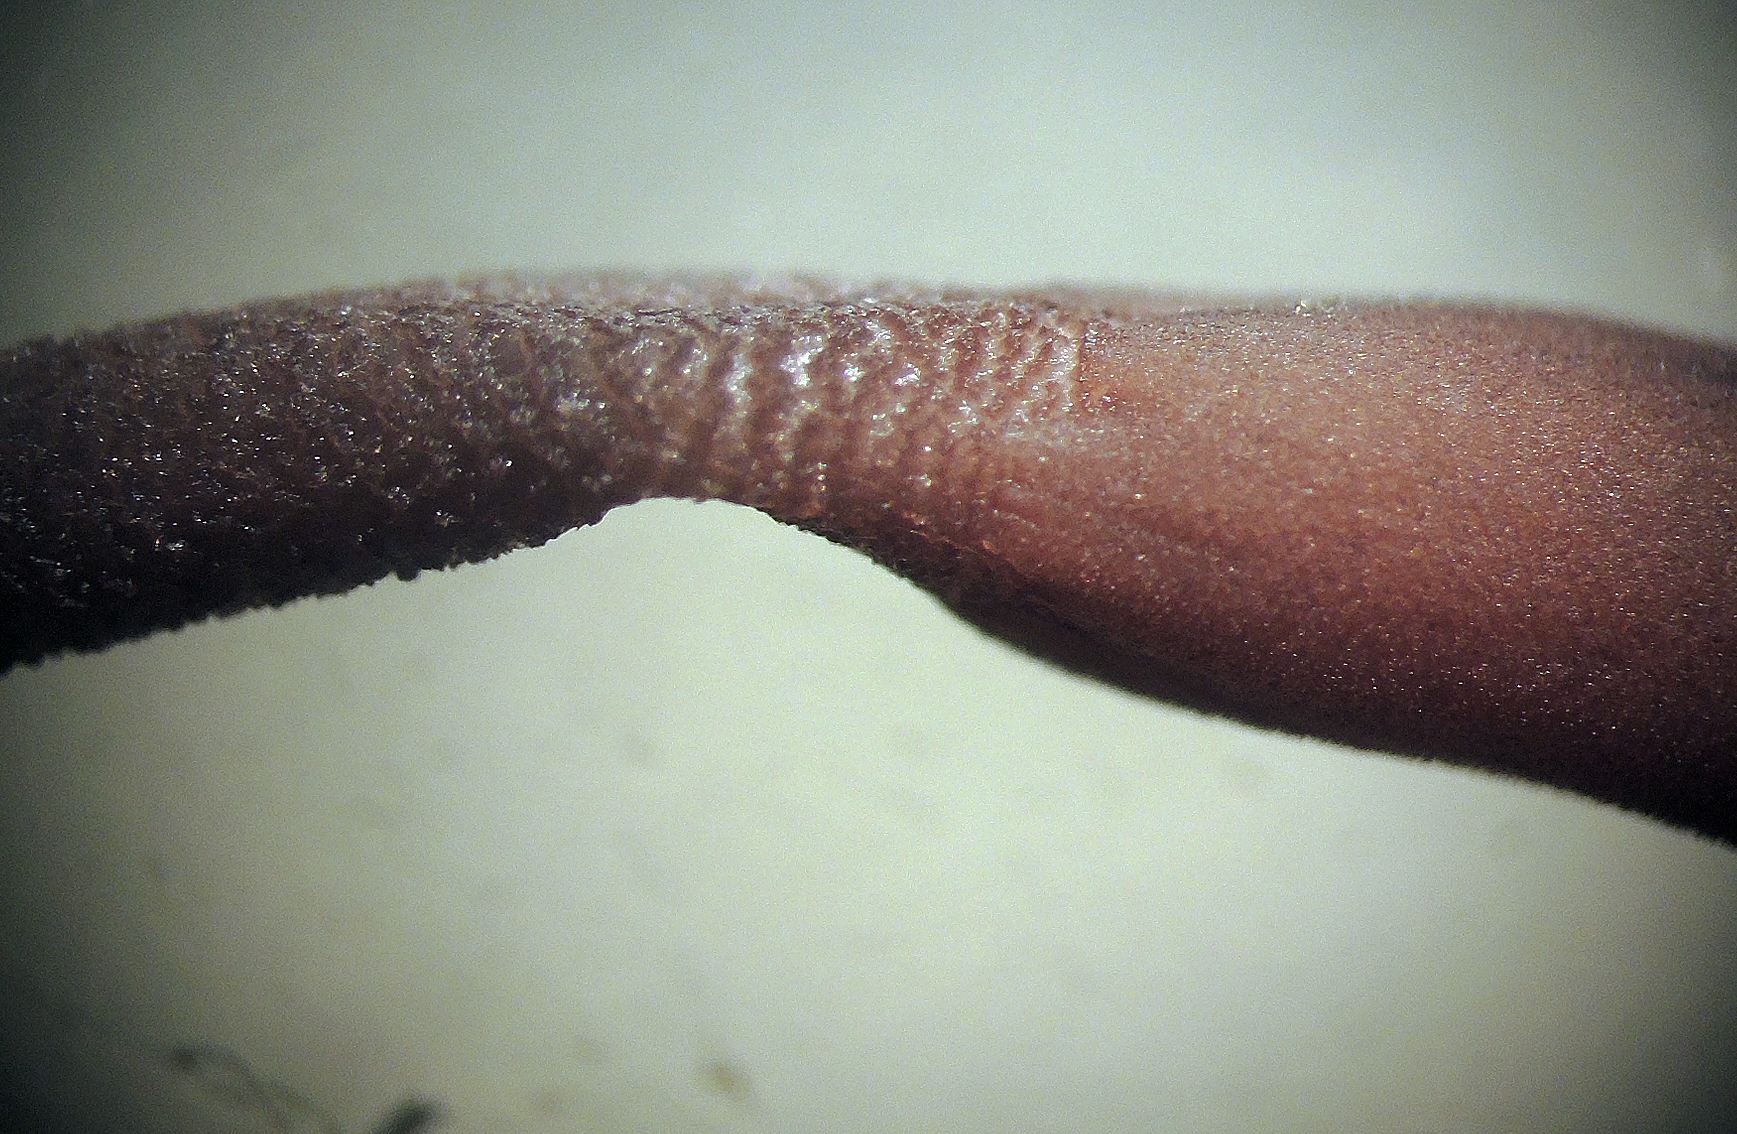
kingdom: Fungi
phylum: Ascomycota
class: Geoglossomycetes
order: Geoglossales
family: Geoglossaceae
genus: Geoglossum
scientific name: Geoglossum fallax
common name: småskællet jordtunge
